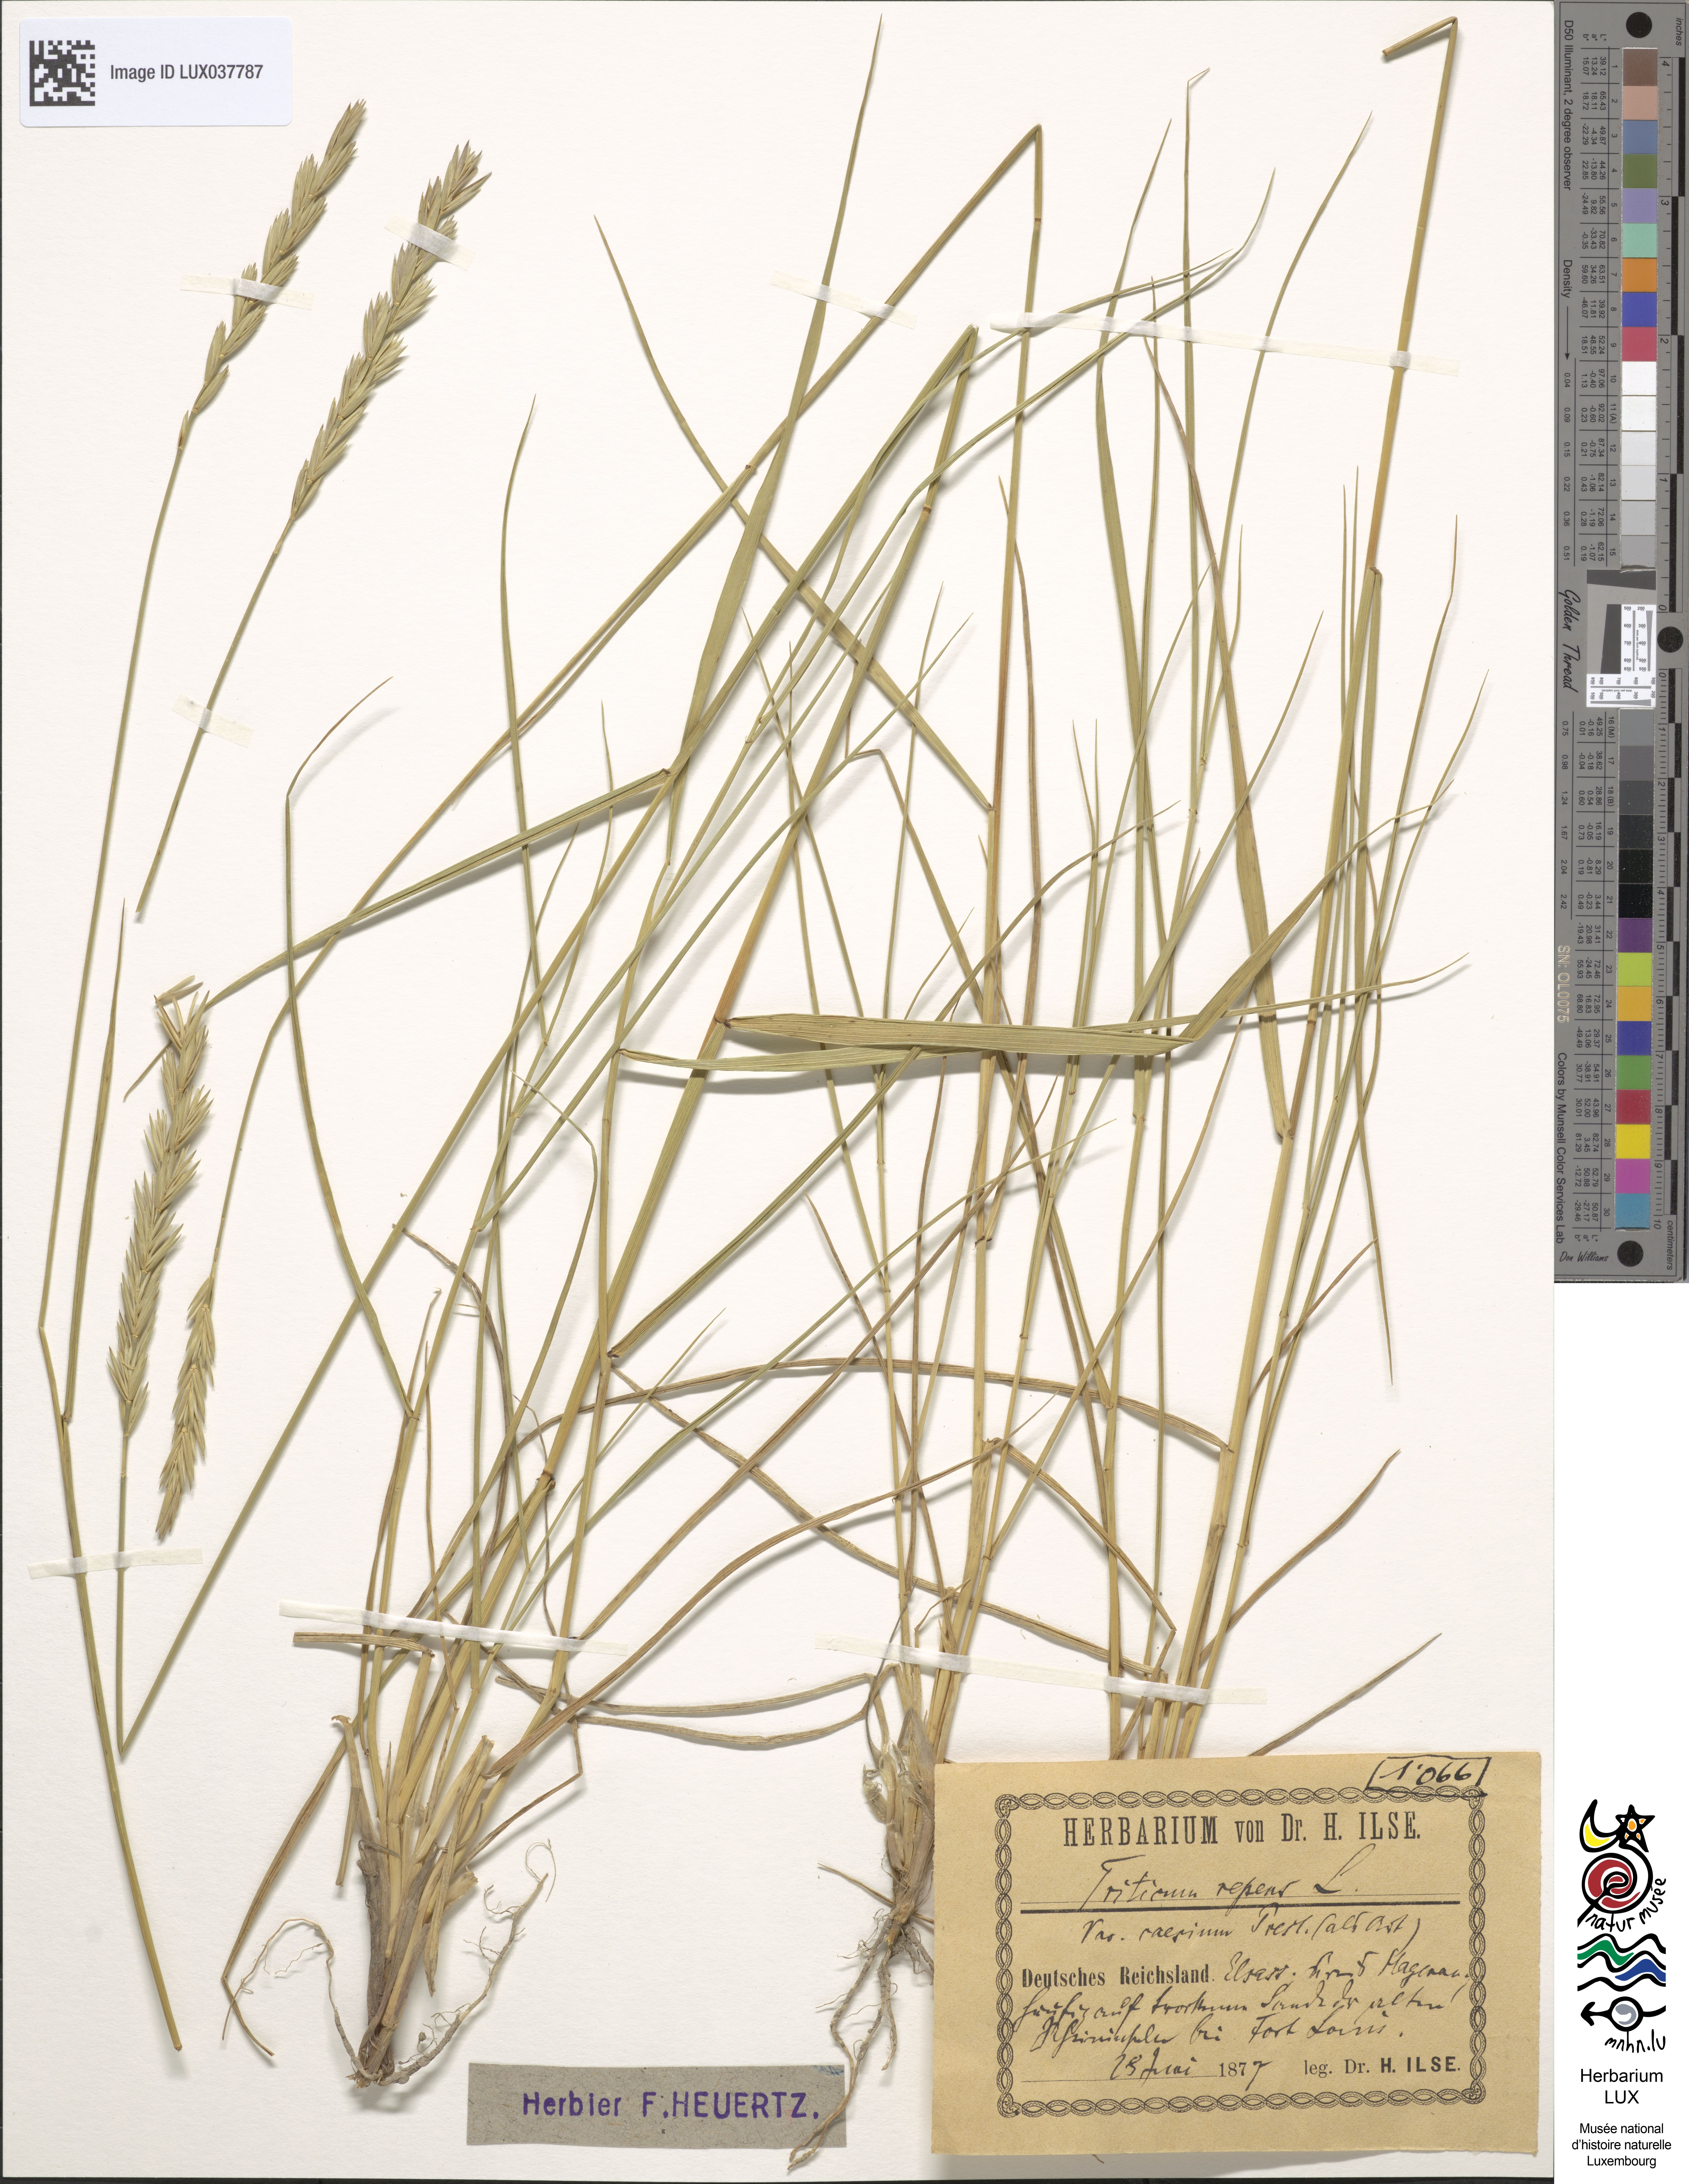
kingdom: Plantae
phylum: Tracheophyta
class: Liliopsida
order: Poales
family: Poaceae
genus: Elymus
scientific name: Elymus repens
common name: Quackgrass
